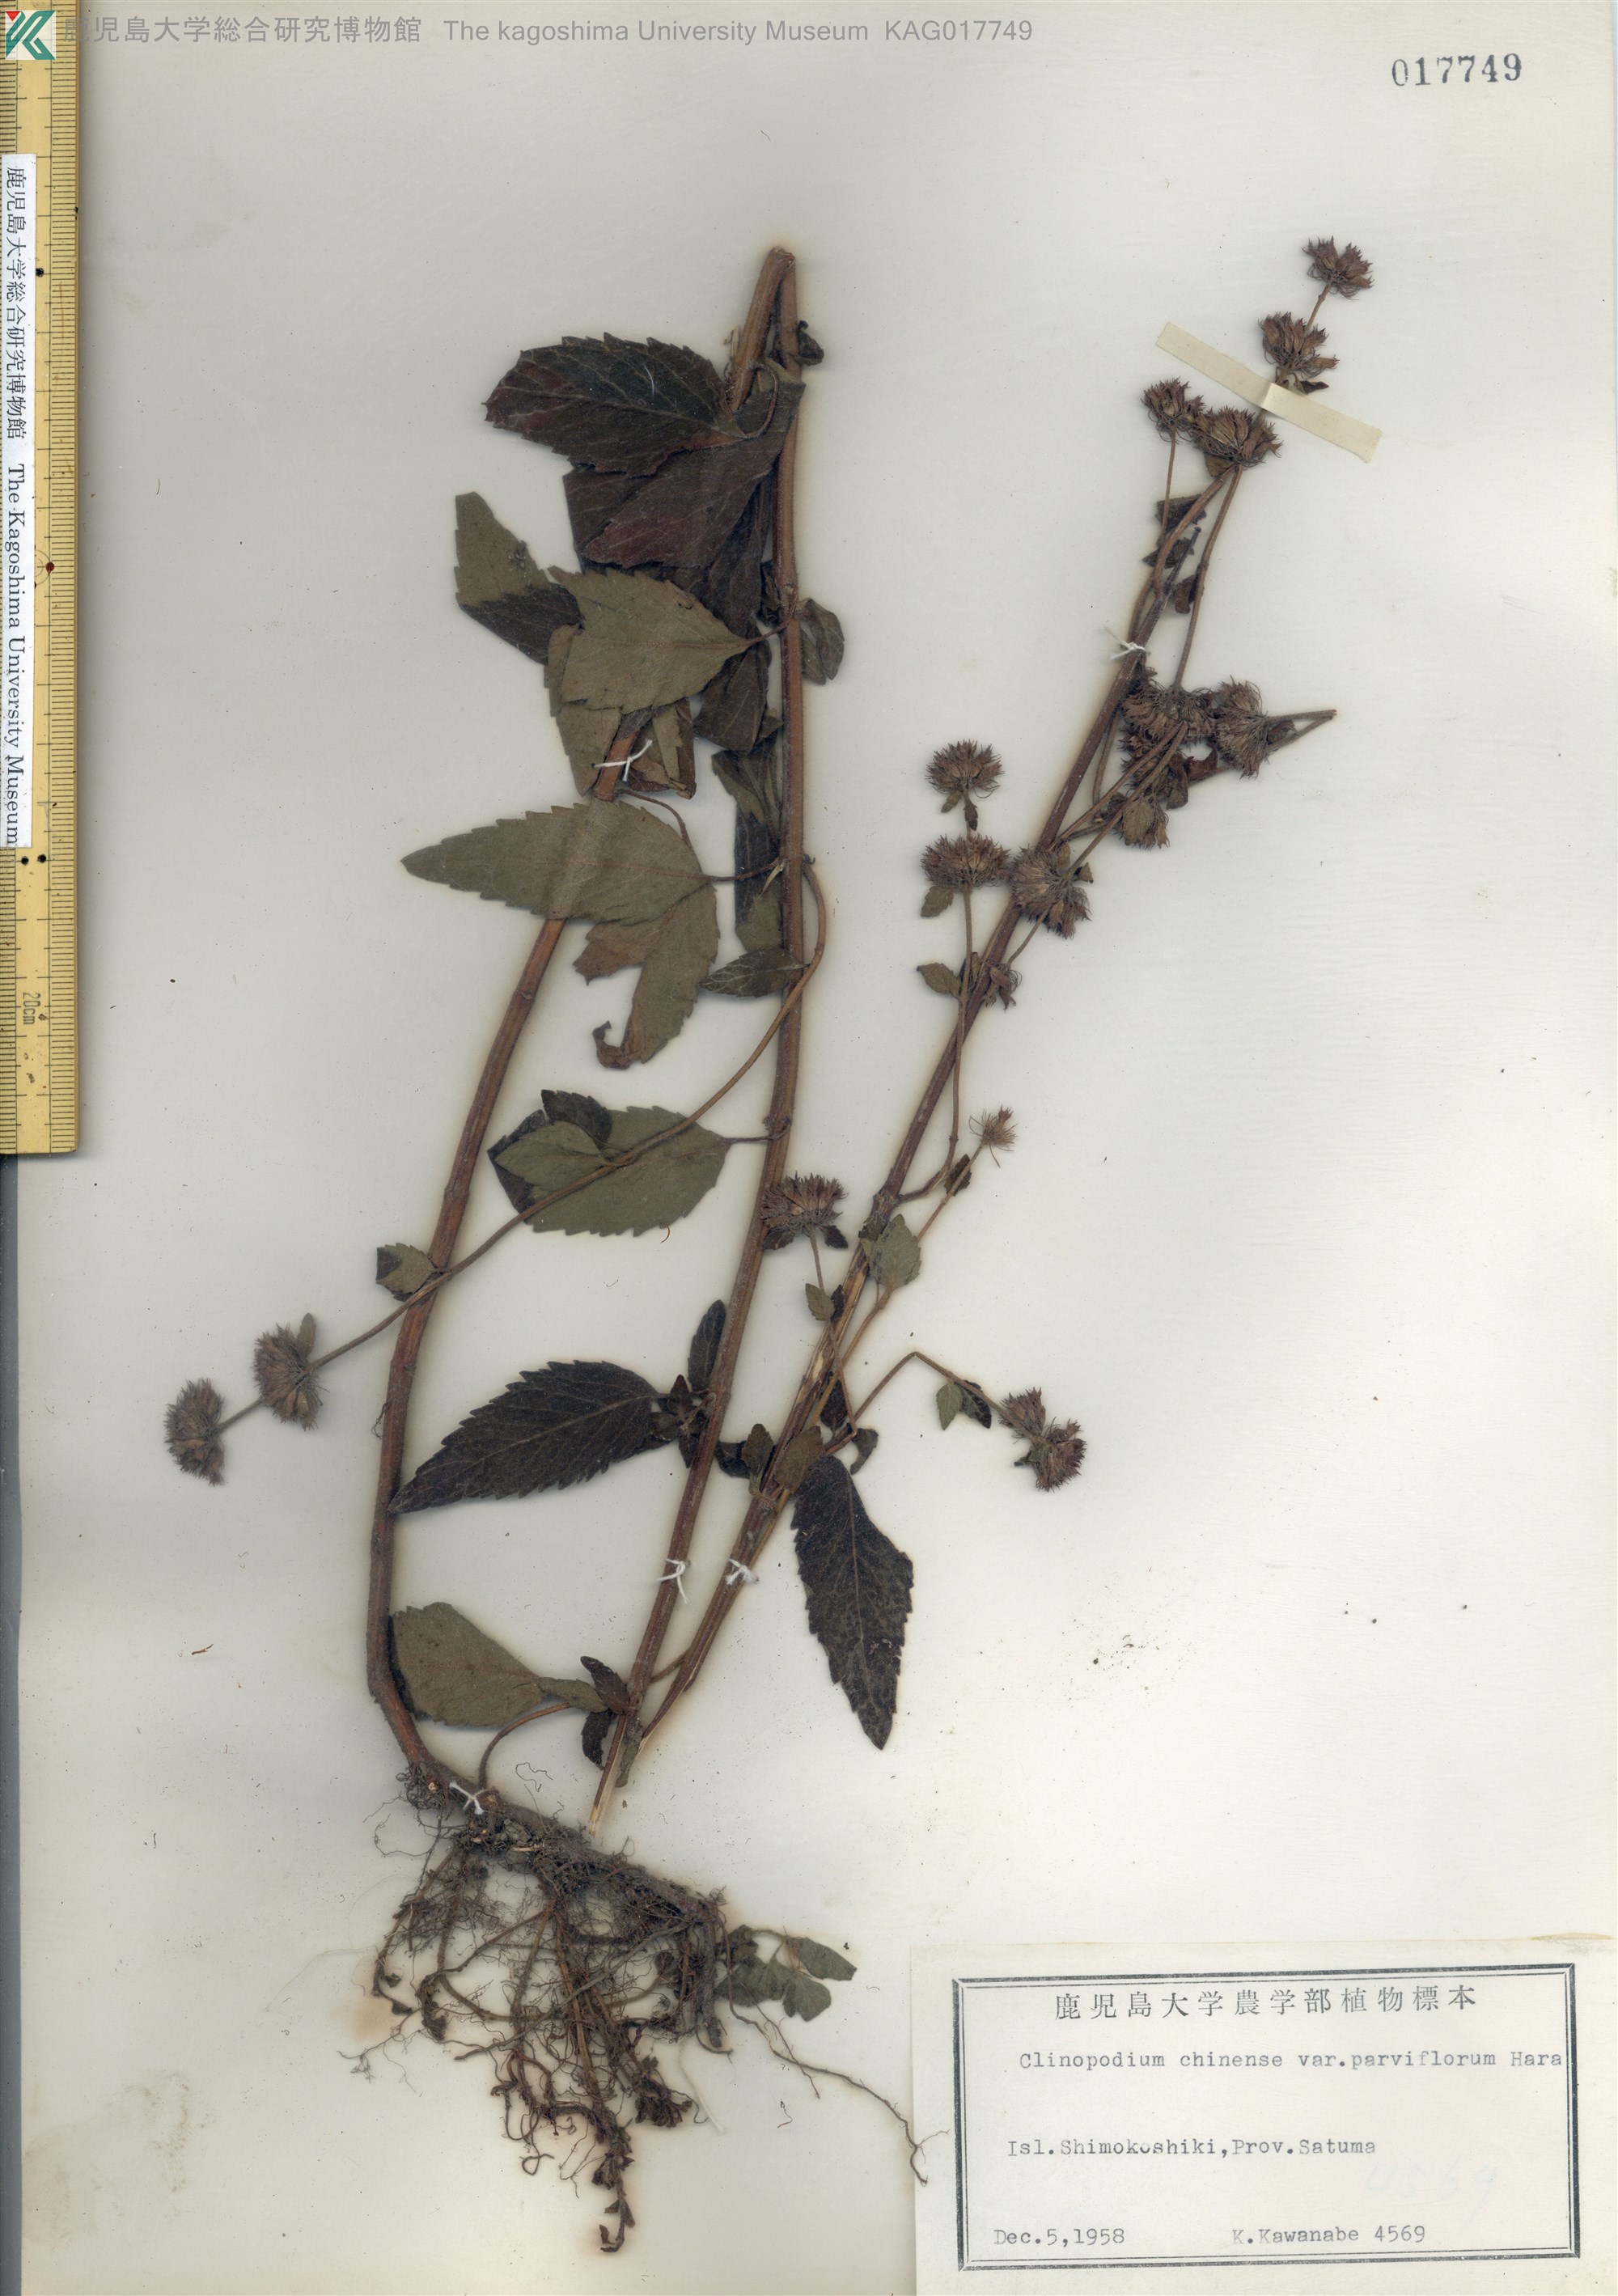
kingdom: Plantae
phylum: Tracheophyta
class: Magnoliopsida
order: Lamiales
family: Lamiaceae
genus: Clinopodium
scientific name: Clinopodium chinense
